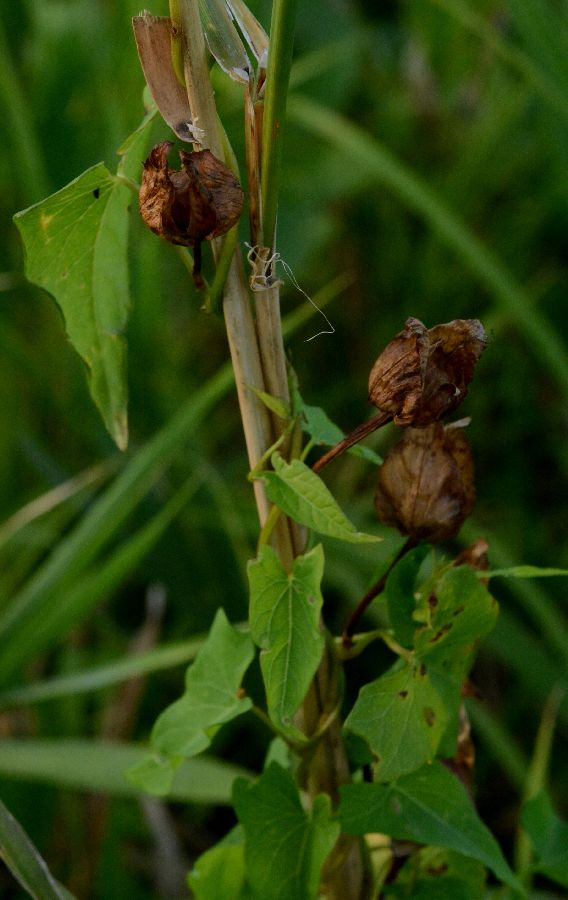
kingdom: Plantae
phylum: Tracheophyta
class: Magnoliopsida
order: Solanales
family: Convolvulaceae
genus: Convolvulus
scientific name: Convolvulus arvensis
